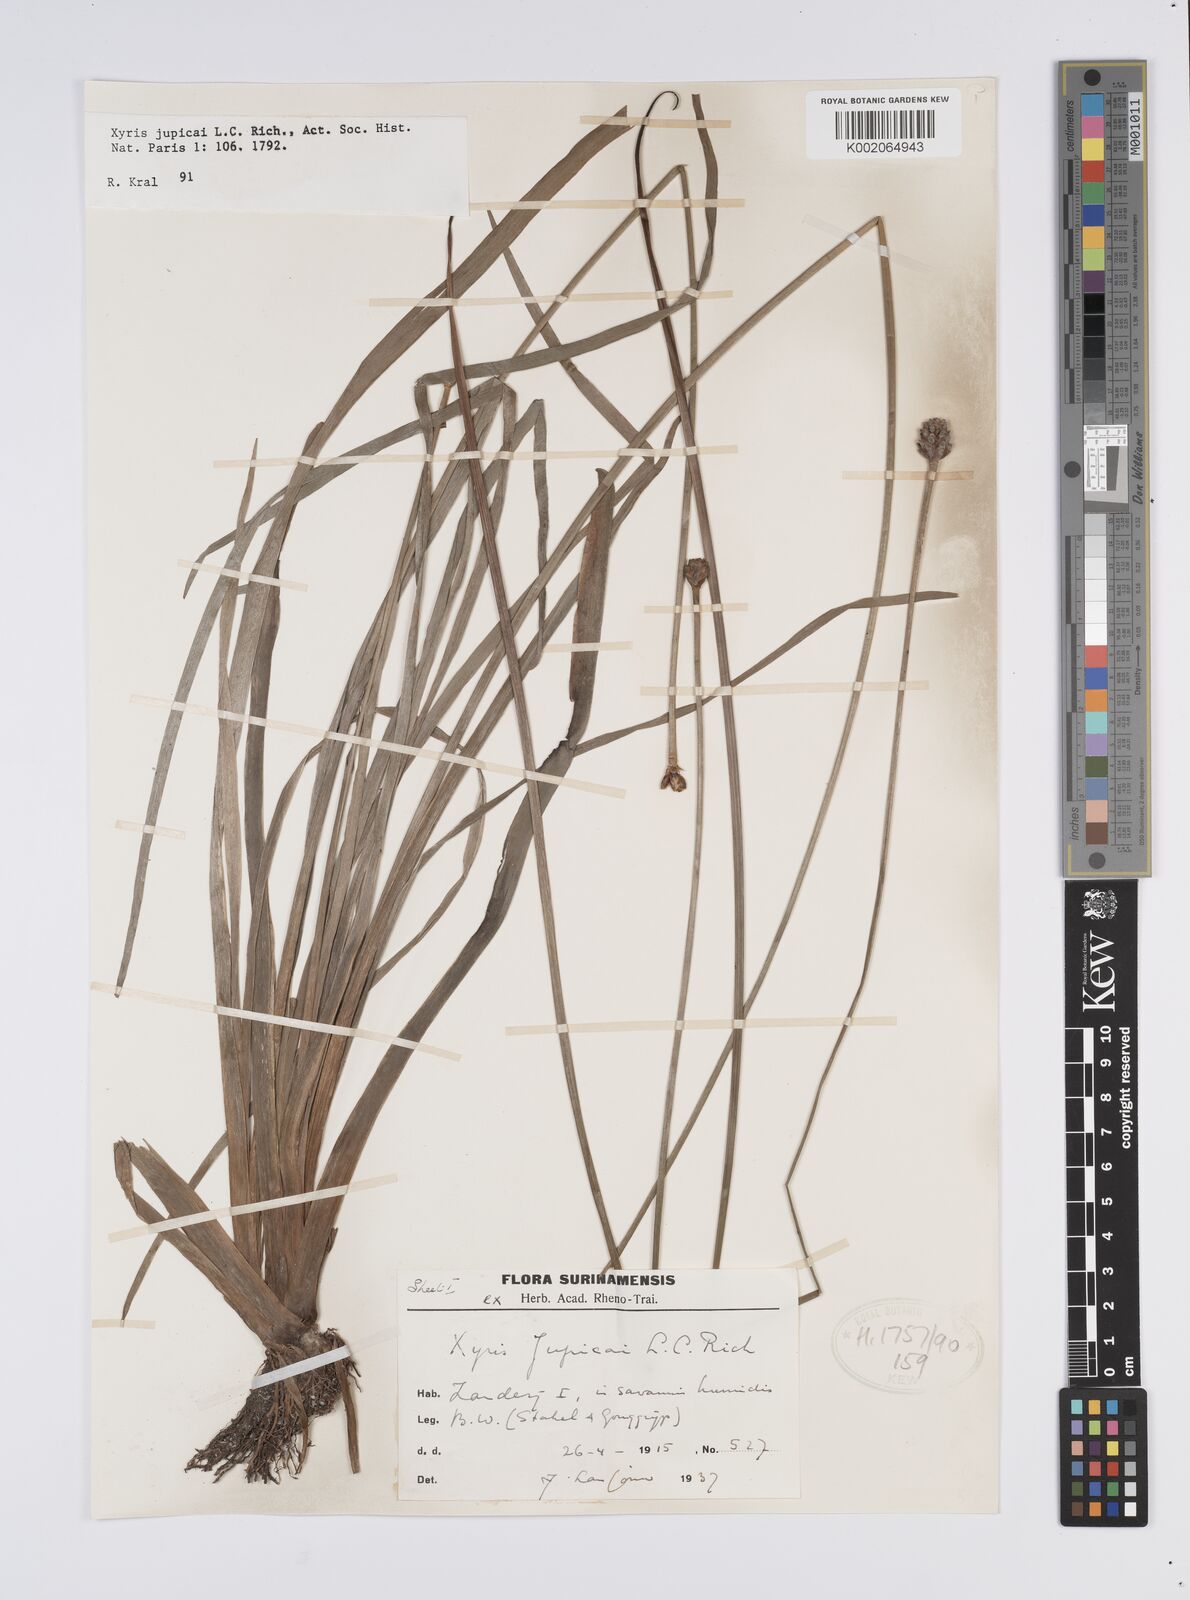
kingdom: Plantae
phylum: Tracheophyta
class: Liliopsida
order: Poales
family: Xyridaceae
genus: Xyris
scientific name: Xyris jupicai
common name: Richard's yelloweyed grass
